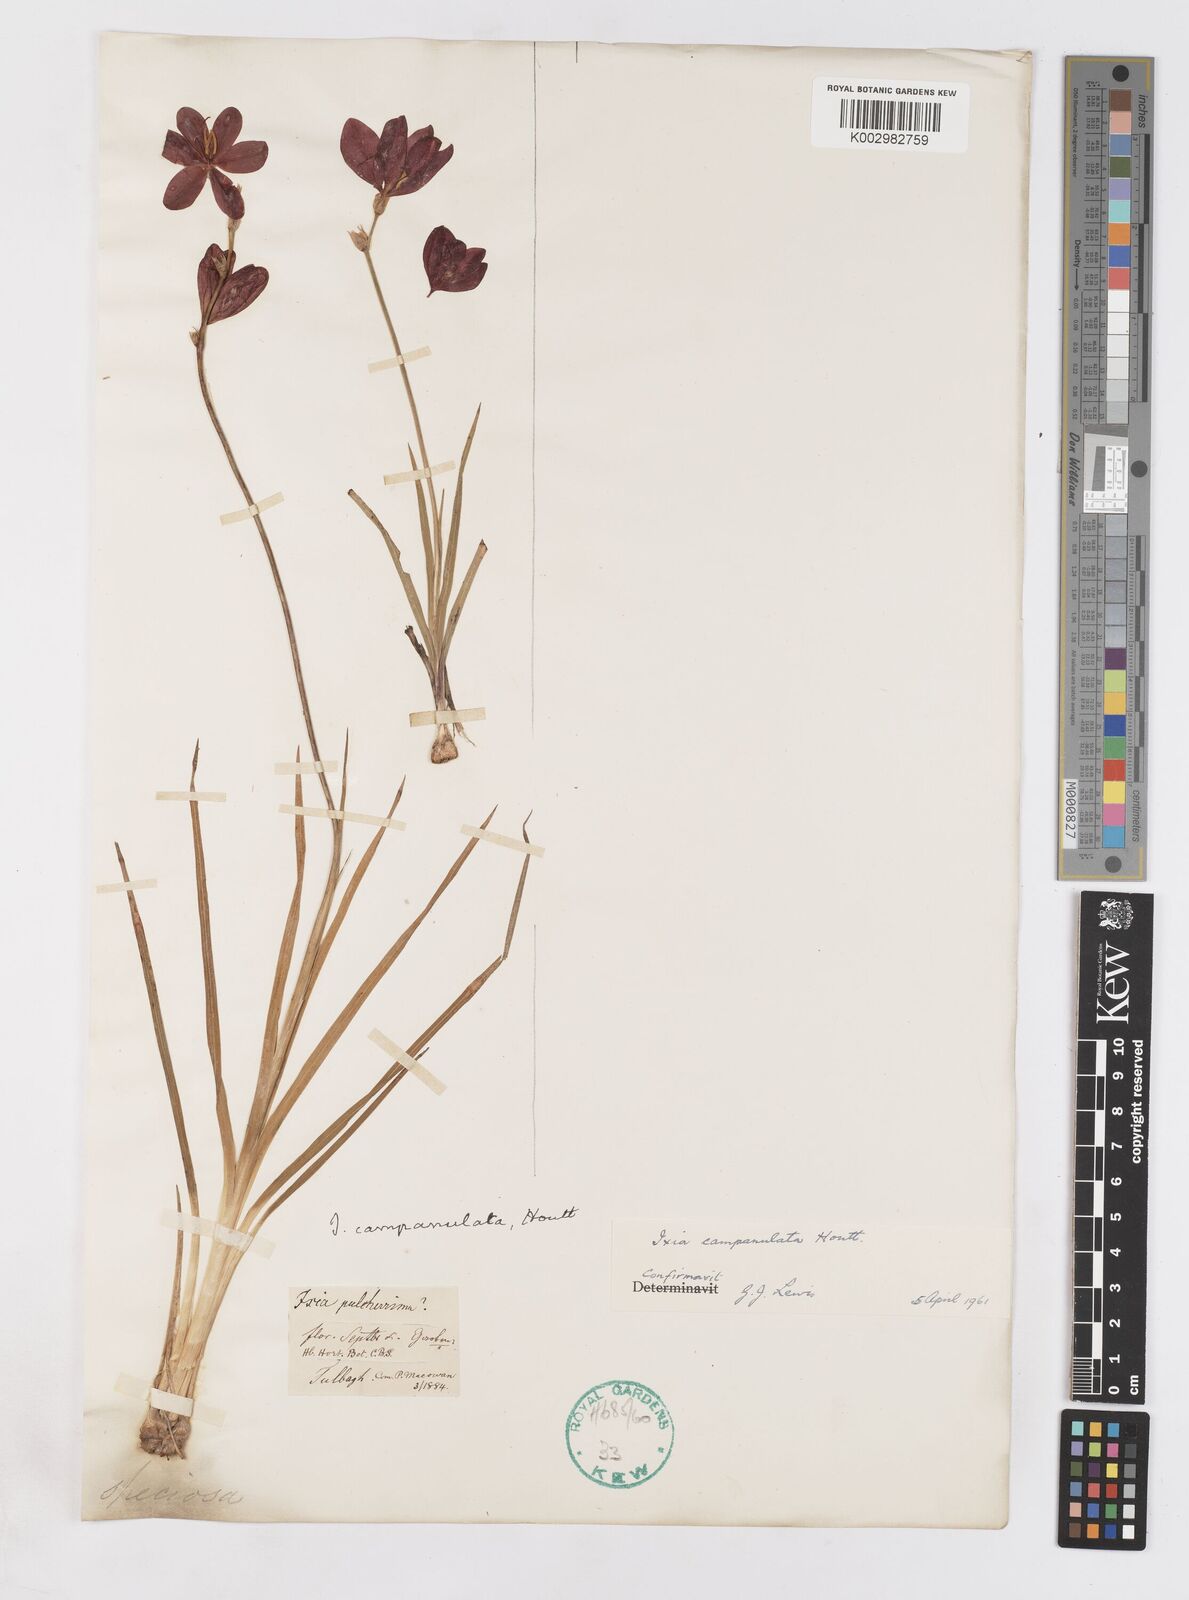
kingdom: Plantae
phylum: Tracheophyta
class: Liliopsida
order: Asparagales
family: Iridaceae
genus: Ixia
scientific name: Ixia campanulata
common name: Red corn-lily
